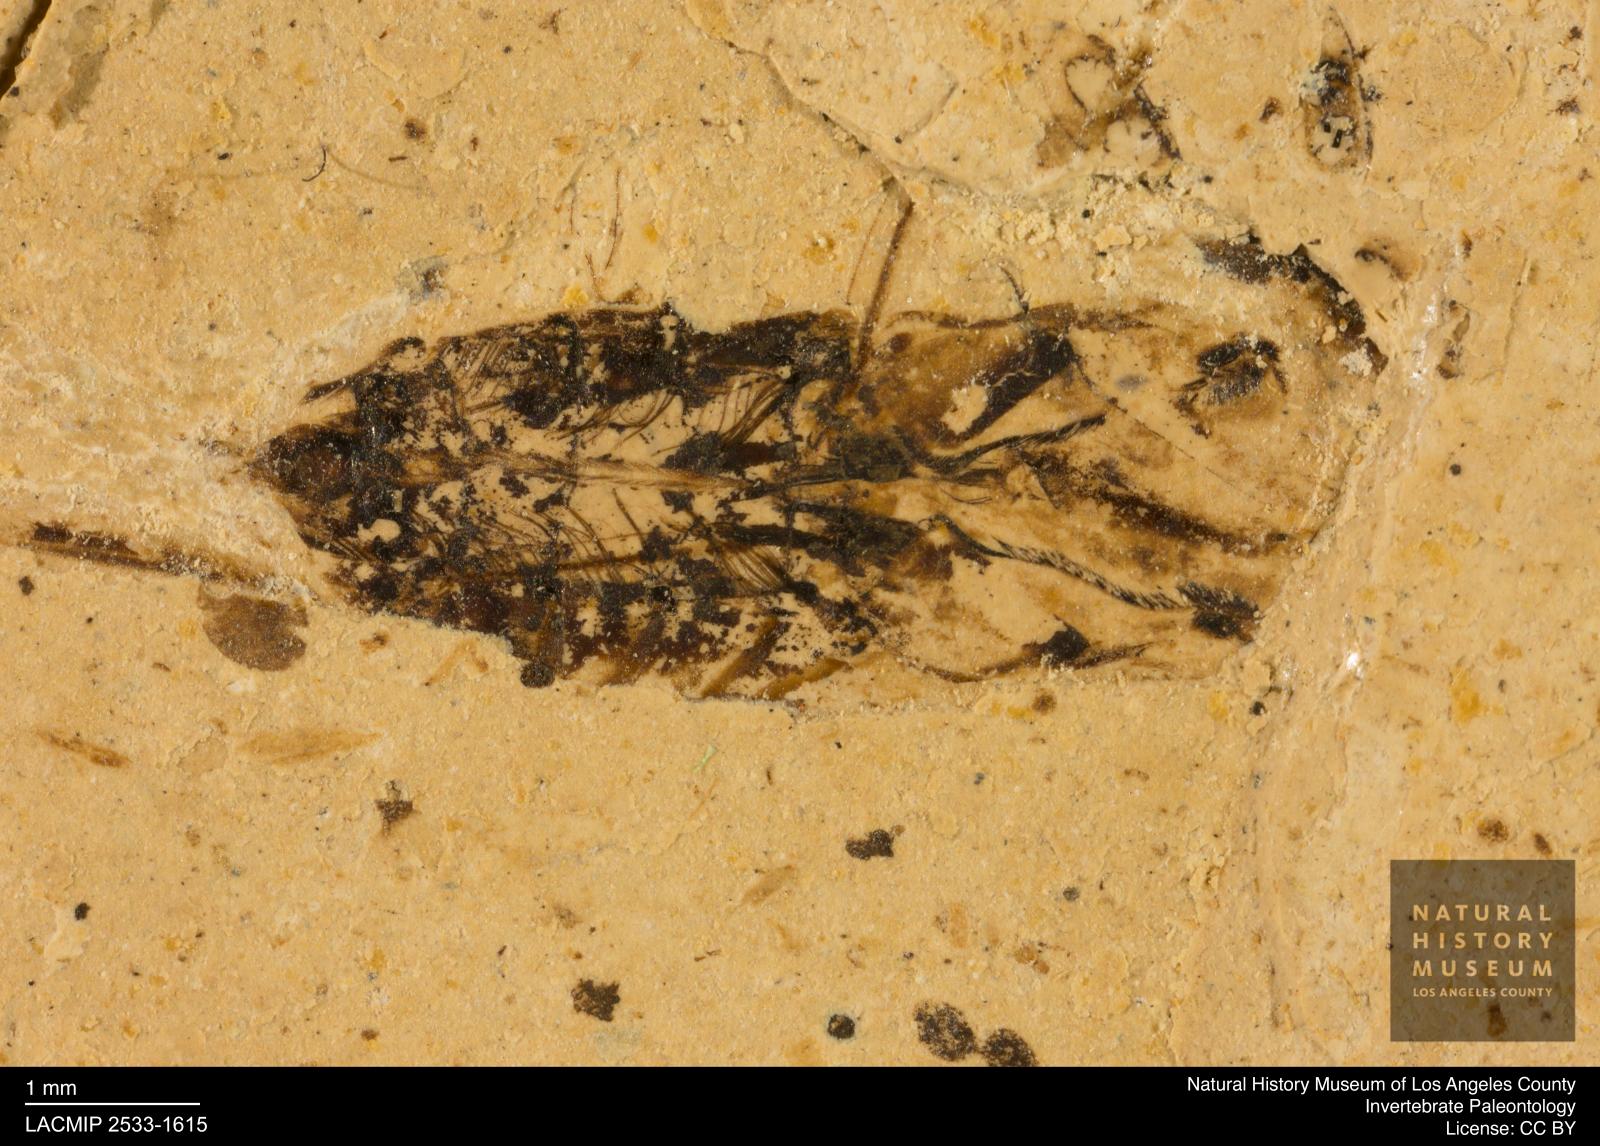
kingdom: Animalia
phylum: Arthropoda
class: Insecta
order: Hemiptera
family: Notonectidae
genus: Notonecta
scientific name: Notonecta
